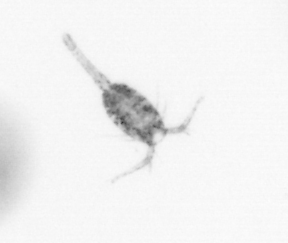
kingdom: Animalia
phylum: Arthropoda
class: Copepoda
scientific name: Copepoda
